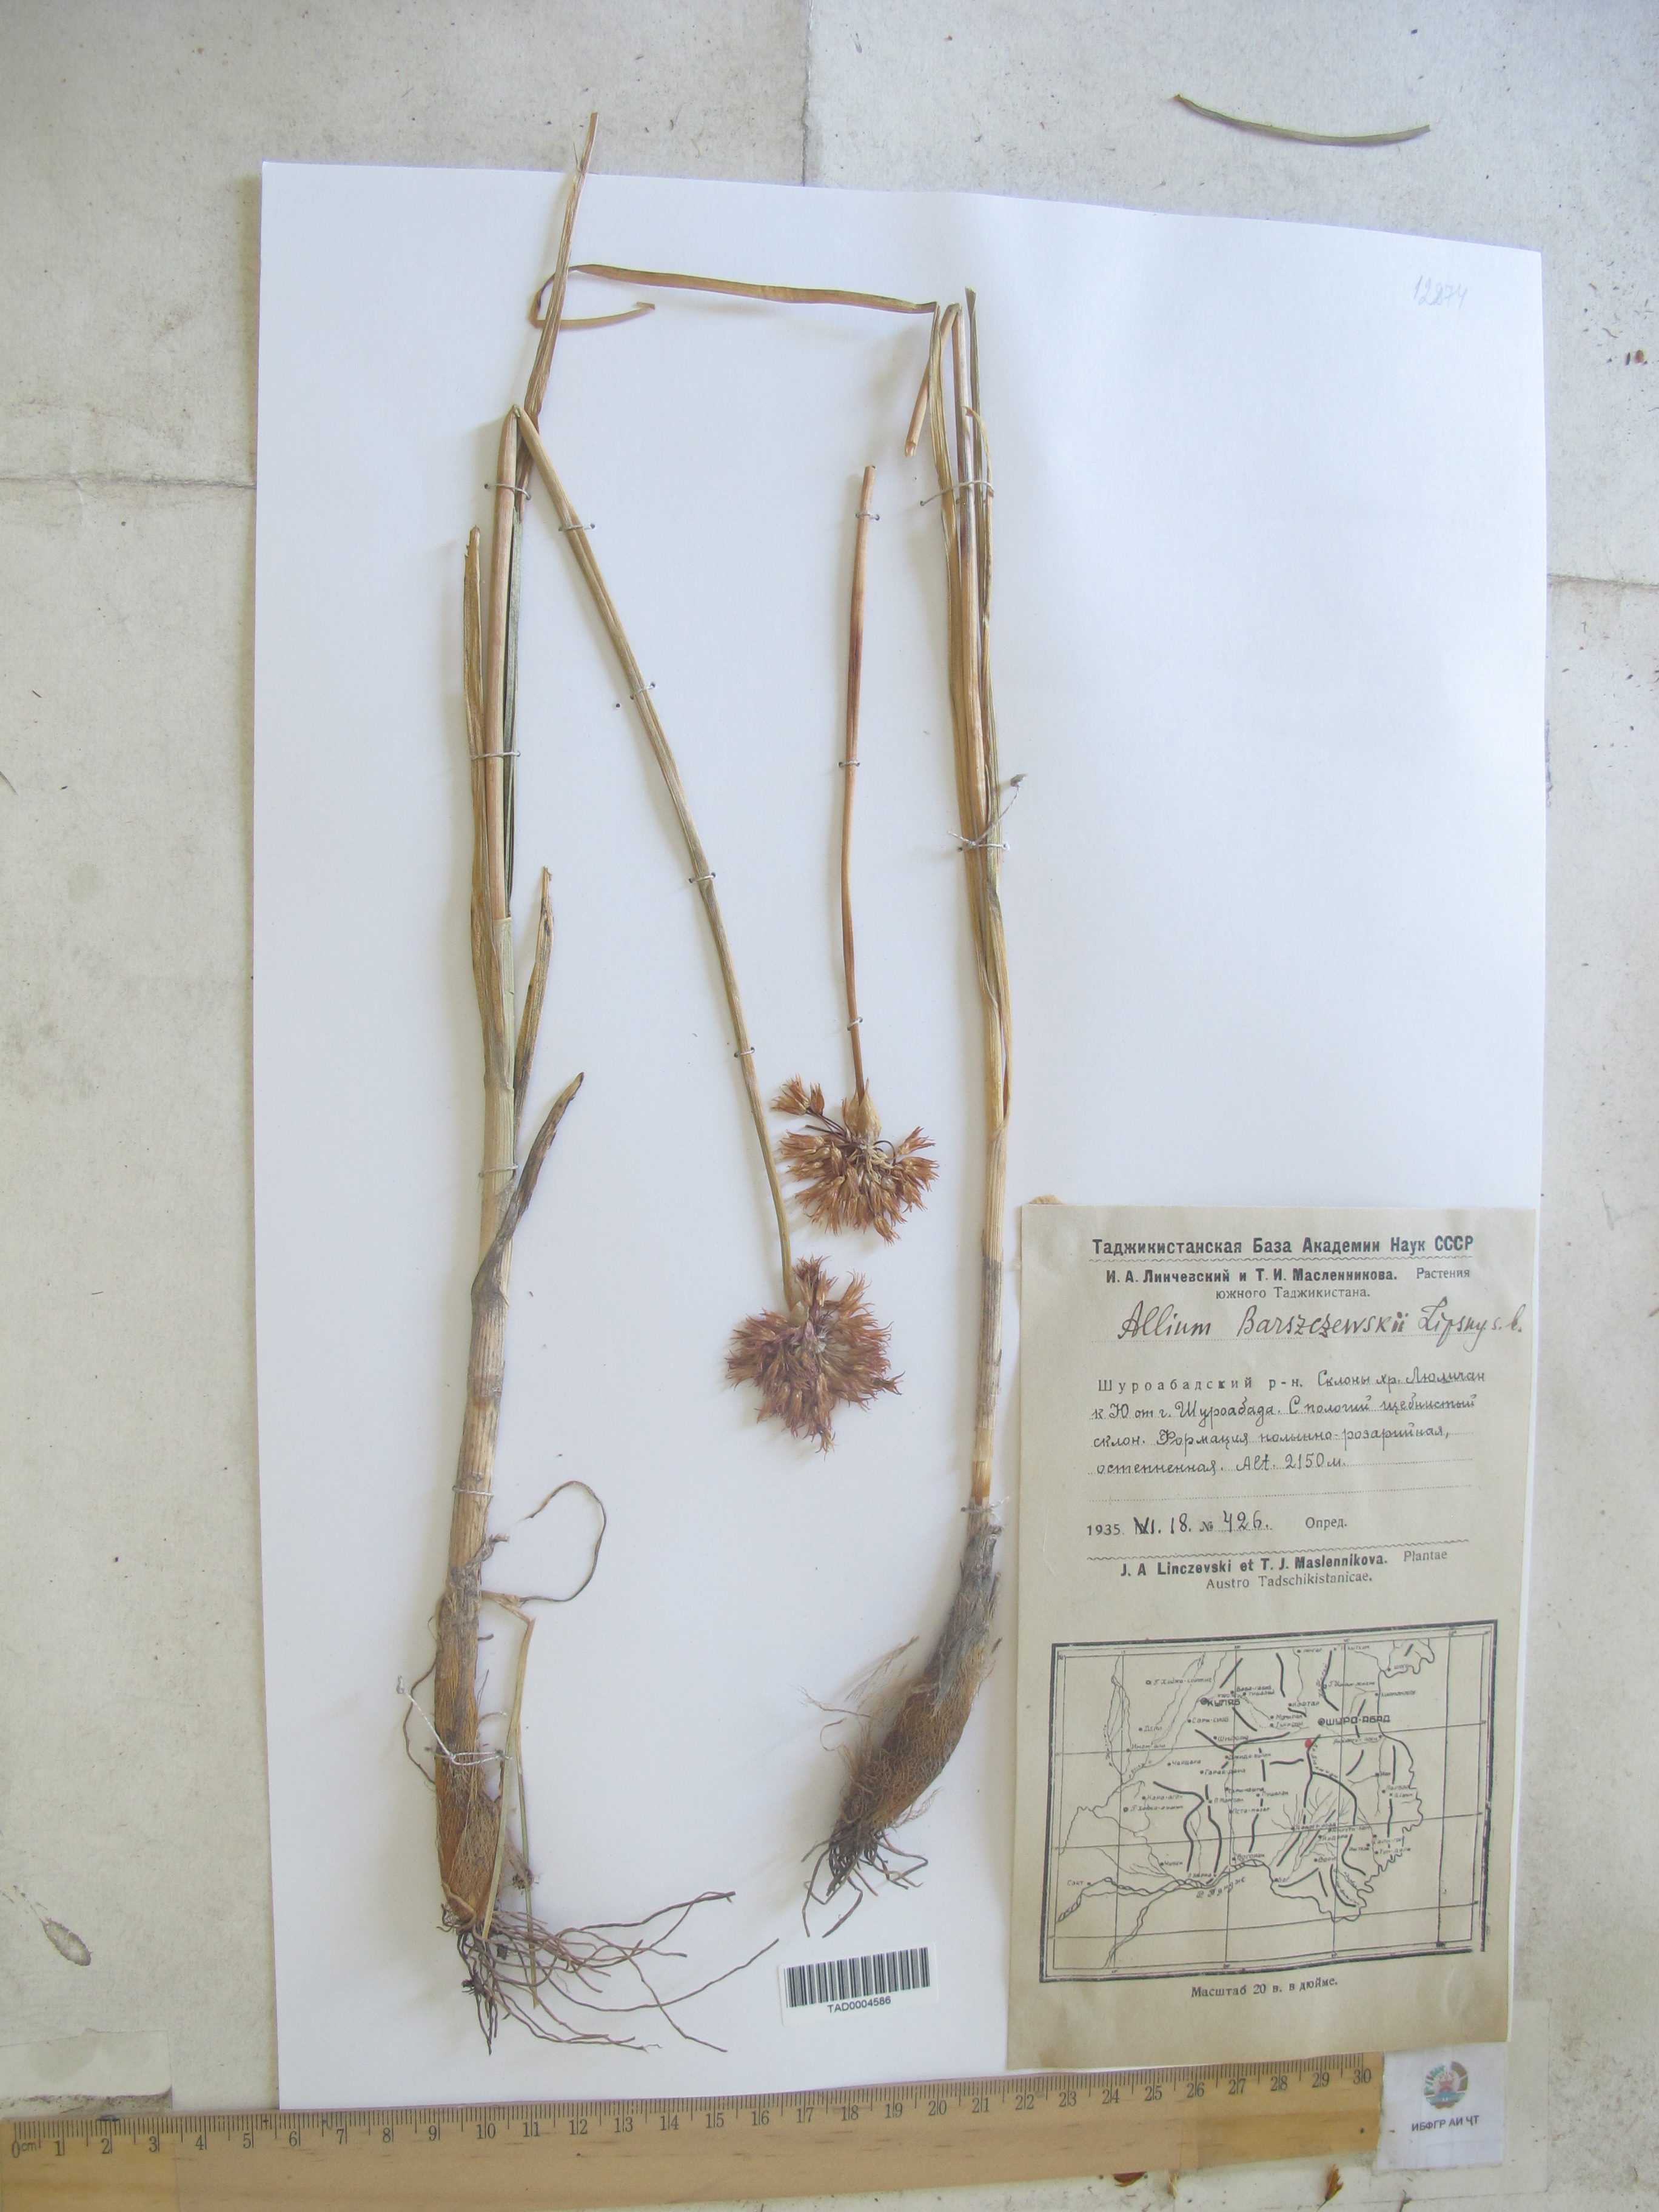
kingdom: Plantae
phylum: Tracheophyta
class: Liliopsida
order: Asparagales
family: Amaryllidaceae
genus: Allium
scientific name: Allium barsczewskii
